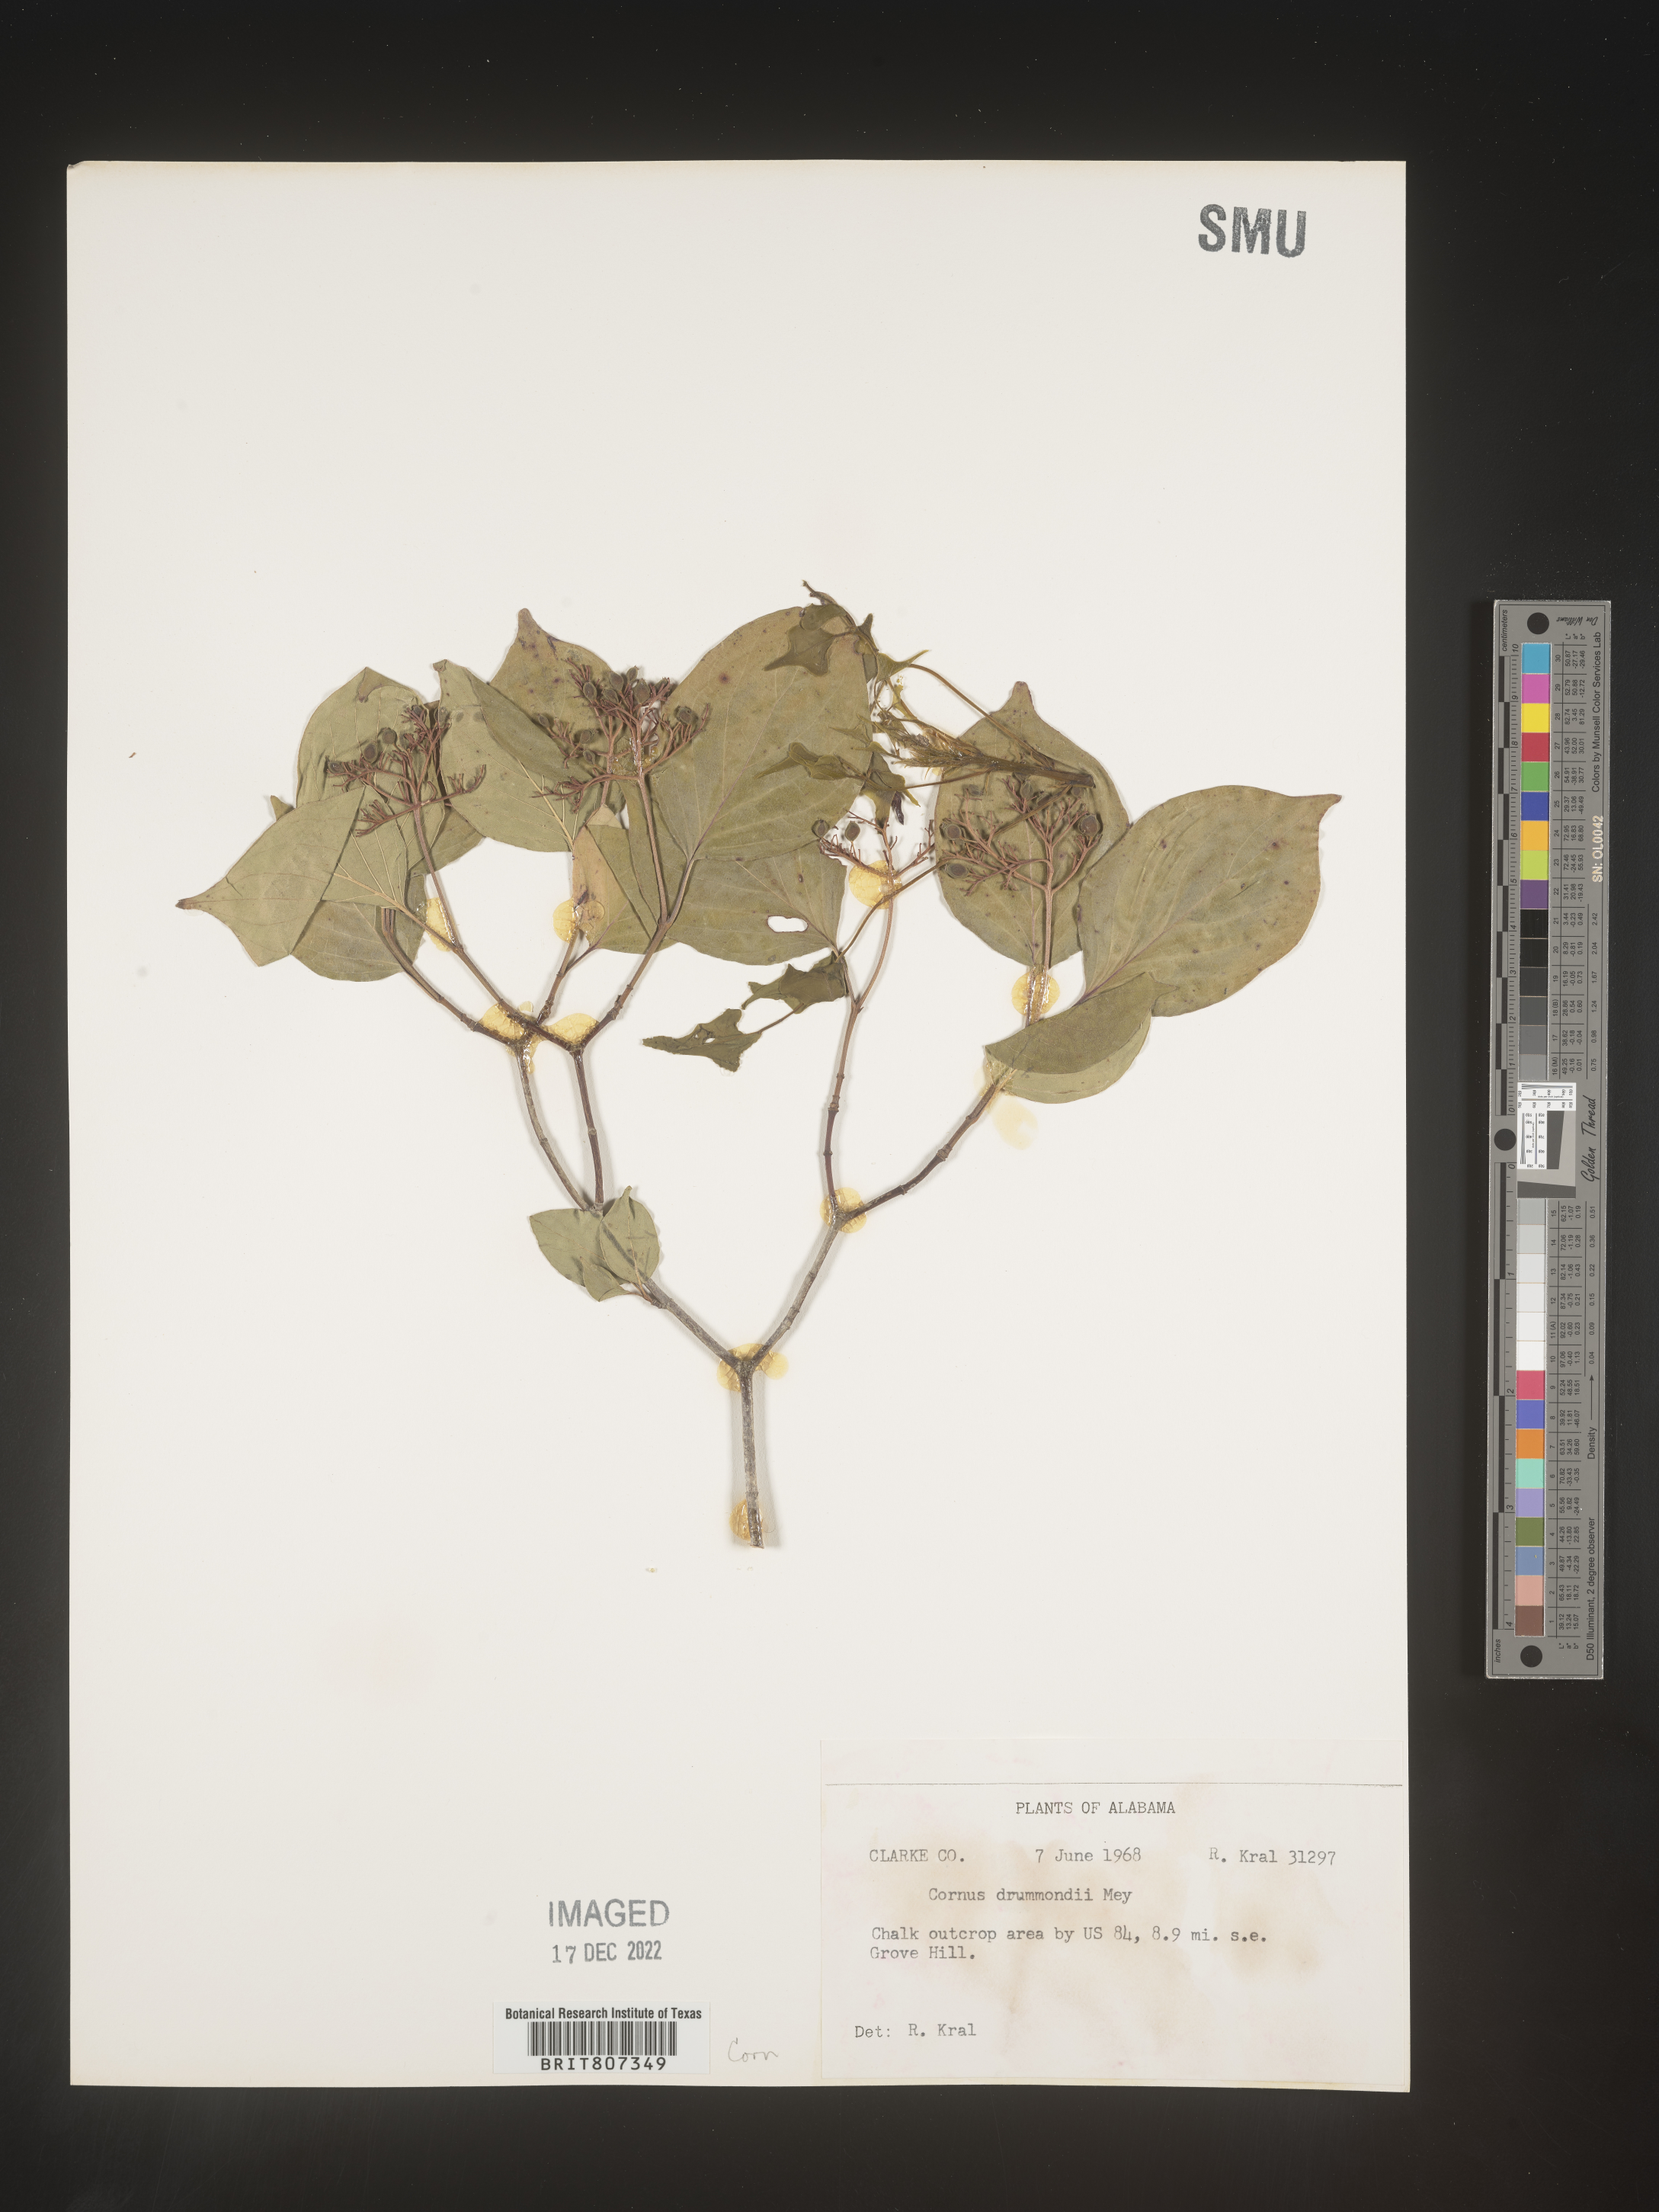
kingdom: Plantae
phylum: Tracheophyta
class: Magnoliopsida
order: Cornales
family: Cornaceae
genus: Cornus
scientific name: Cornus drummondii
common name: Rough-leaf dogwood
